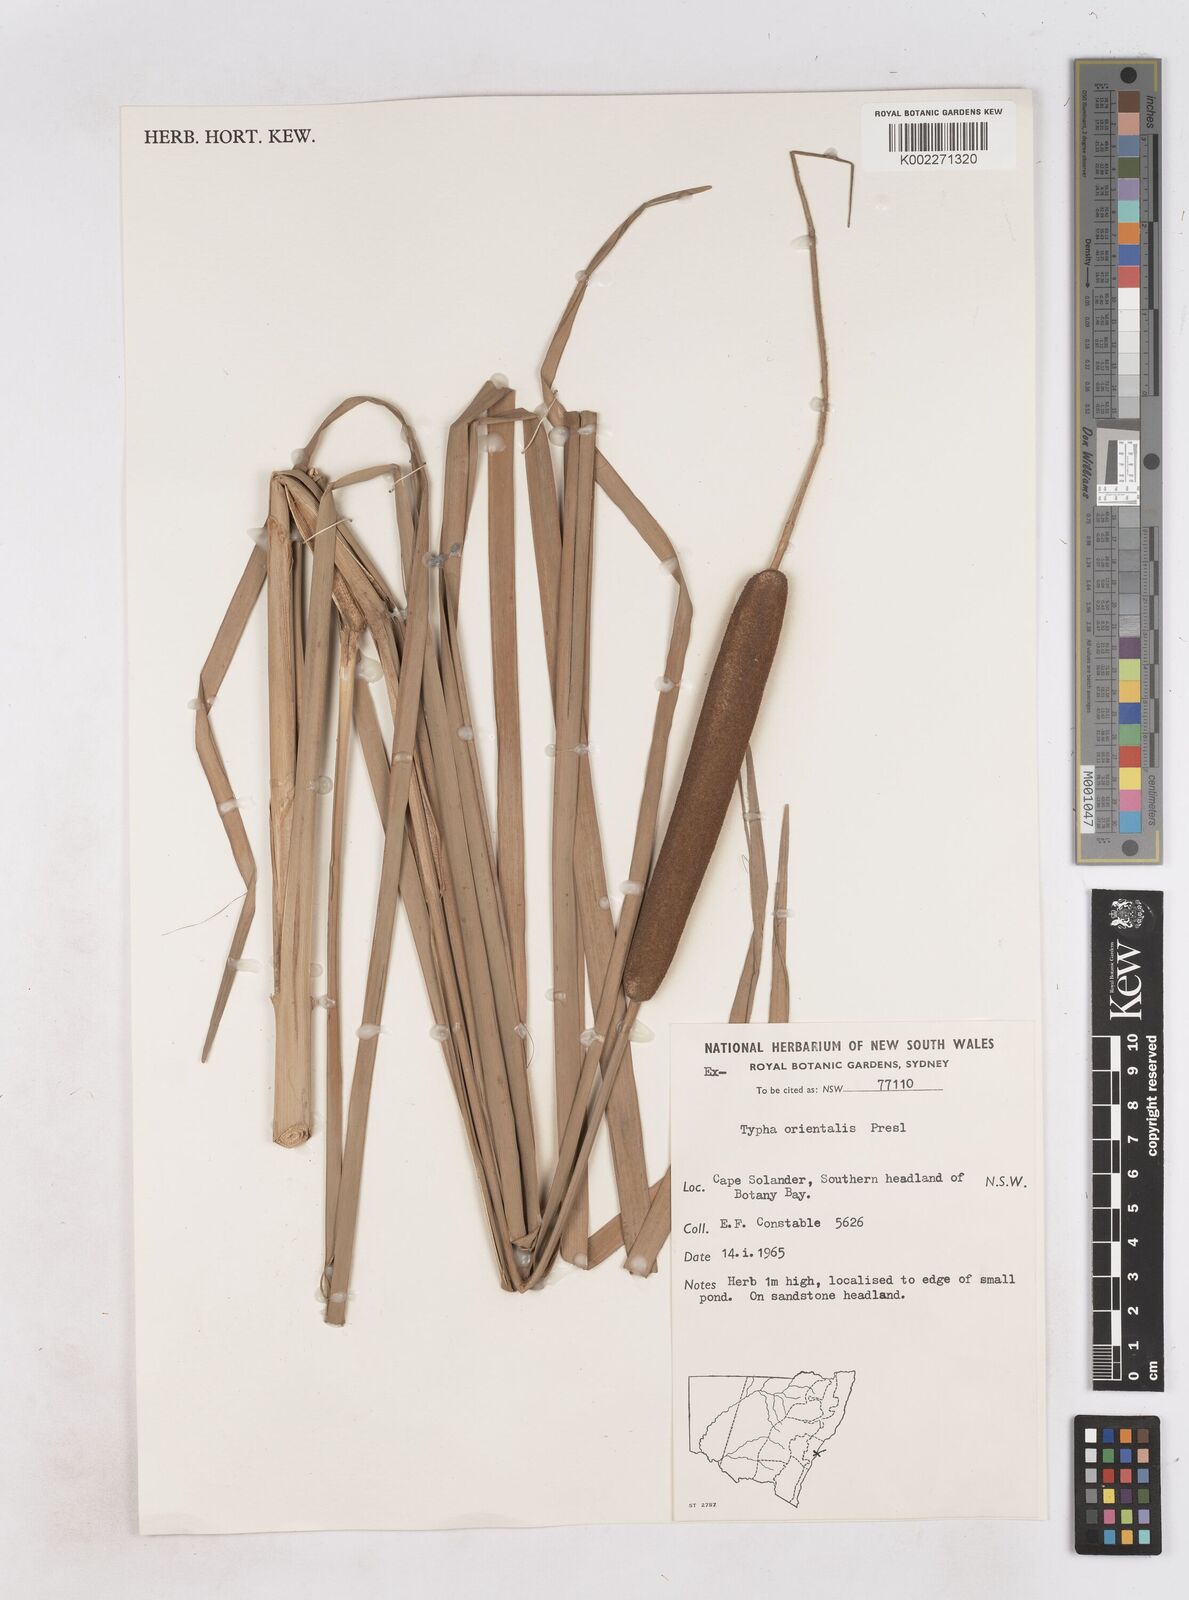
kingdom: Plantae
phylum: Tracheophyta
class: Liliopsida
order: Poales
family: Typhaceae
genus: Typha
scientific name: Typha orientalis
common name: Bullrush
